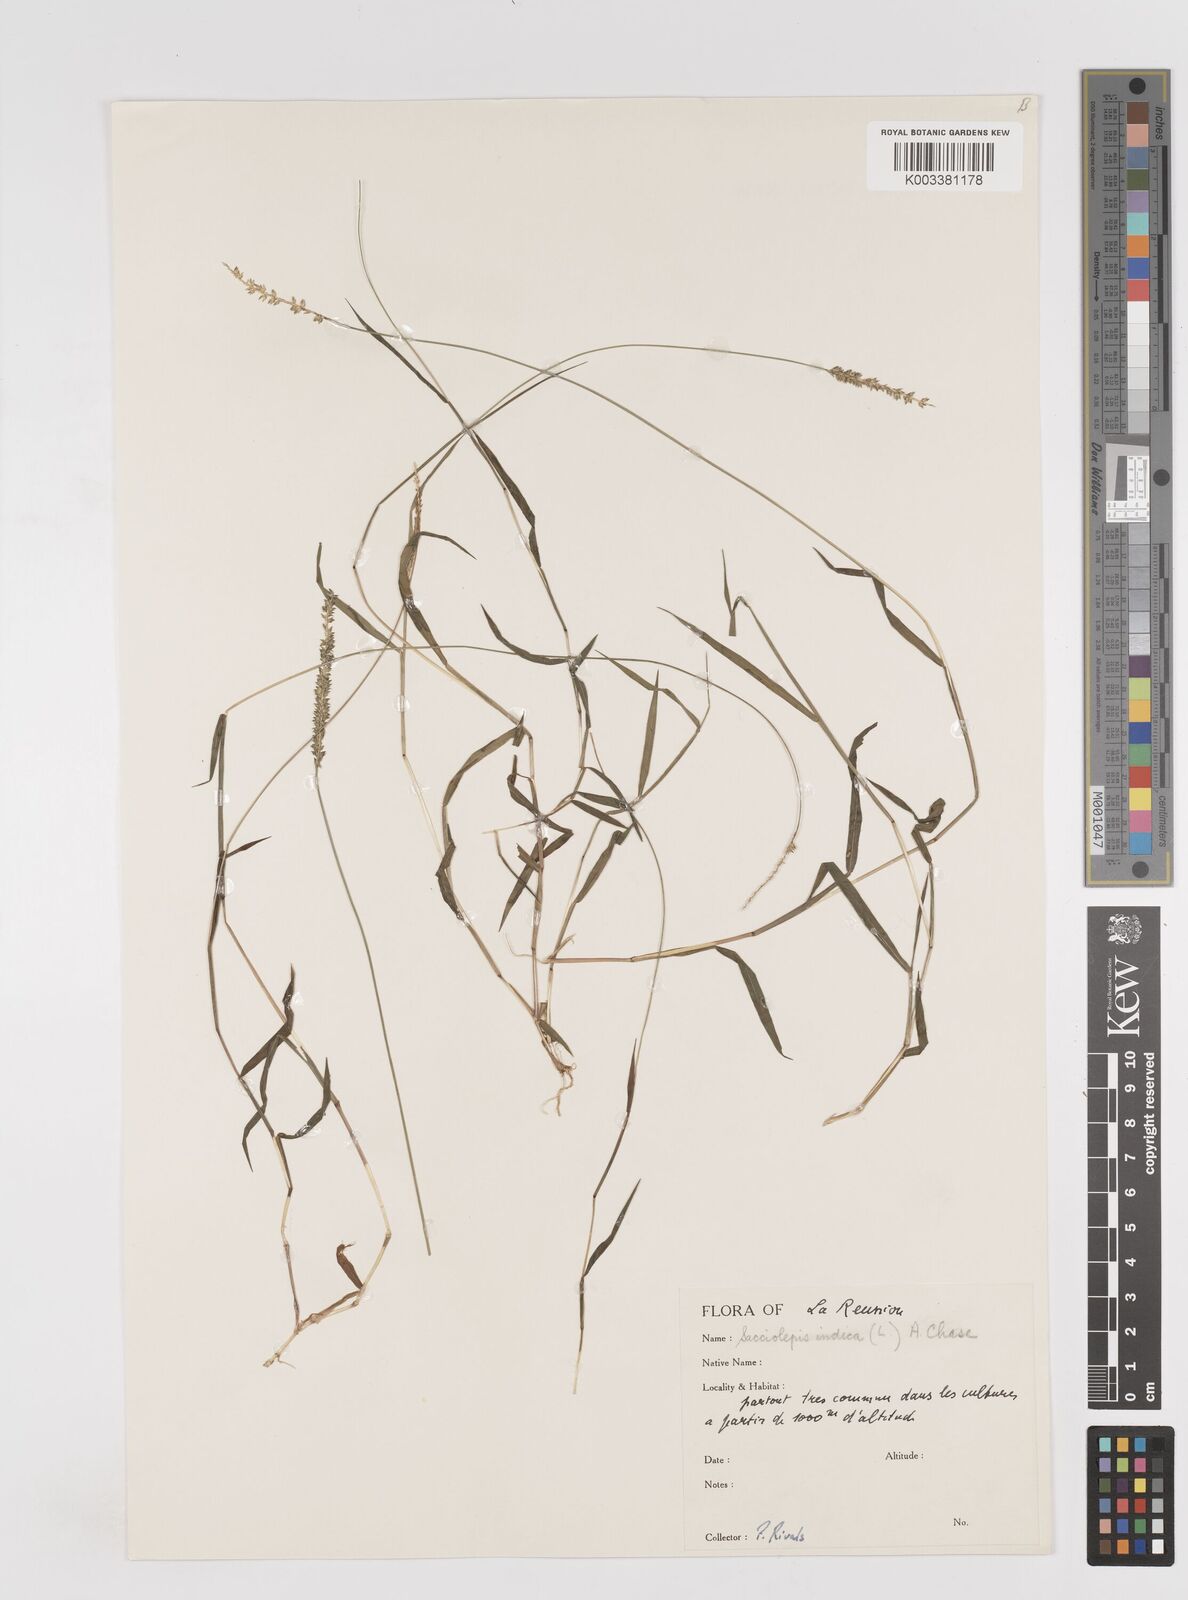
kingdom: Plantae
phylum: Tracheophyta
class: Liliopsida
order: Poales
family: Poaceae
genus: Sacciolepis
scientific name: Sacciolepis indica
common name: Glenwoodgrass
